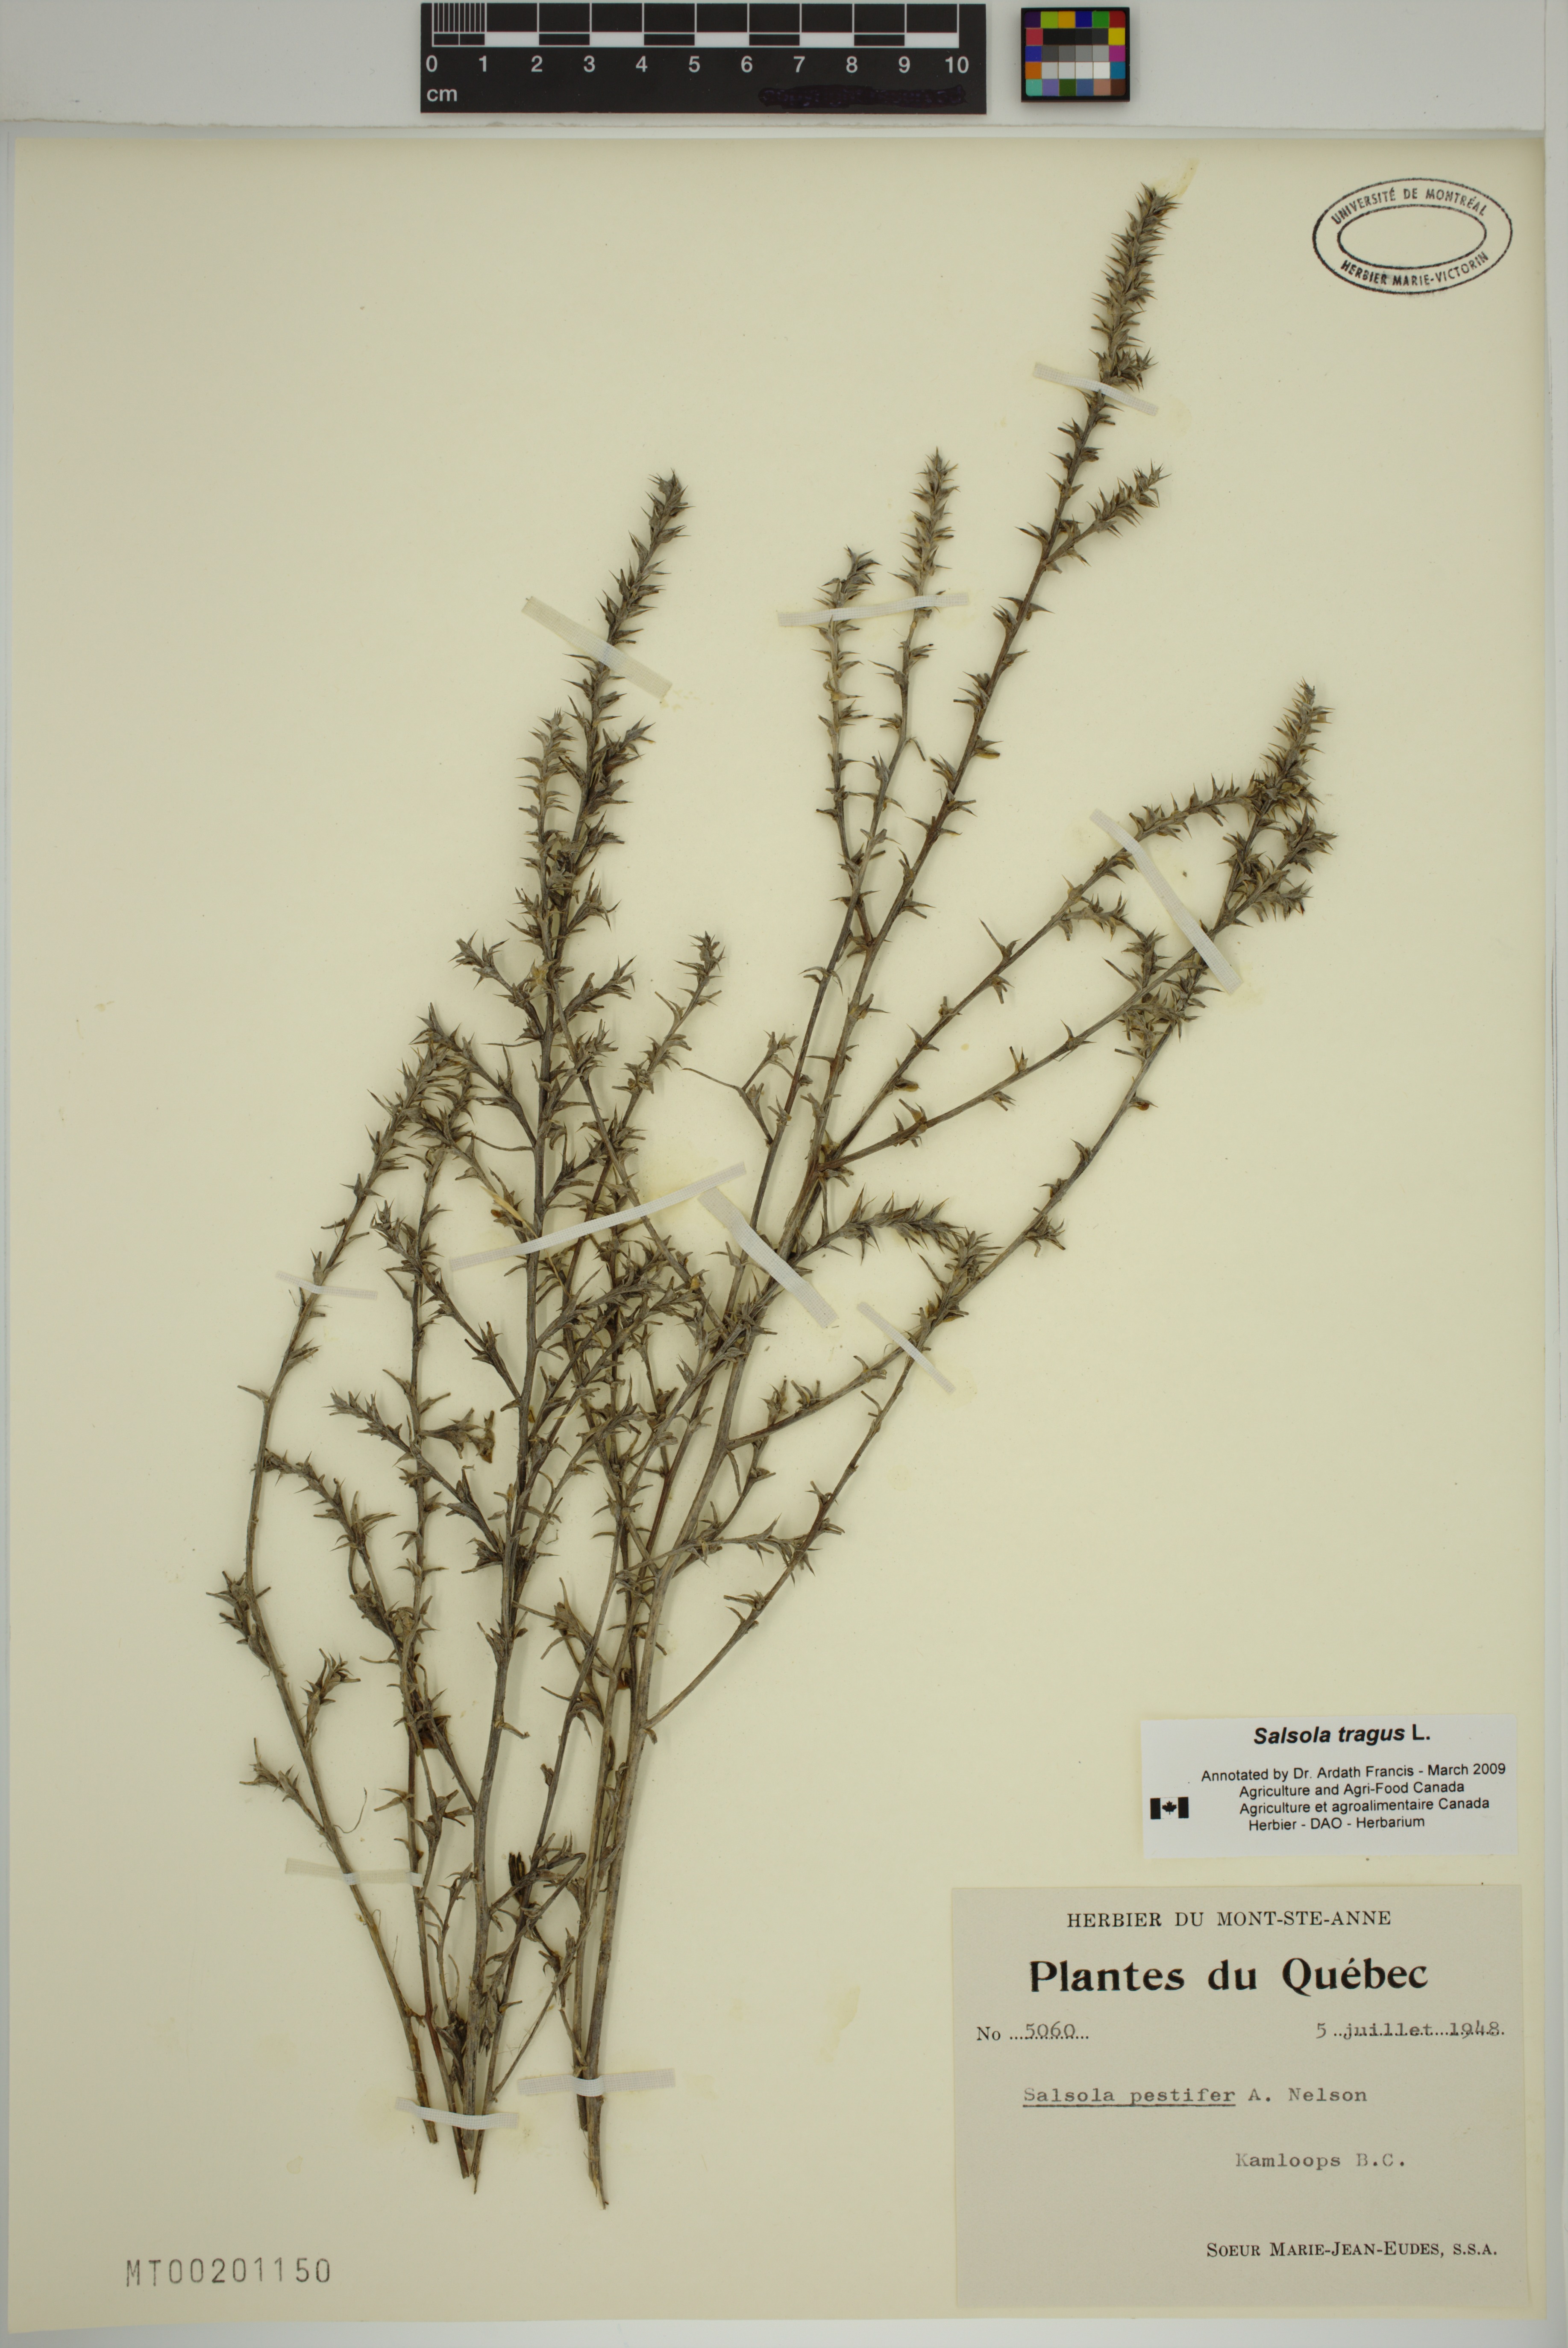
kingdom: Plantae
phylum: Tracheophyta
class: Magnoliopsida
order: Caryophyllales
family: Amaranthaceae
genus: Salsola
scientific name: Salsola tragus
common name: Prickly russian thistle
